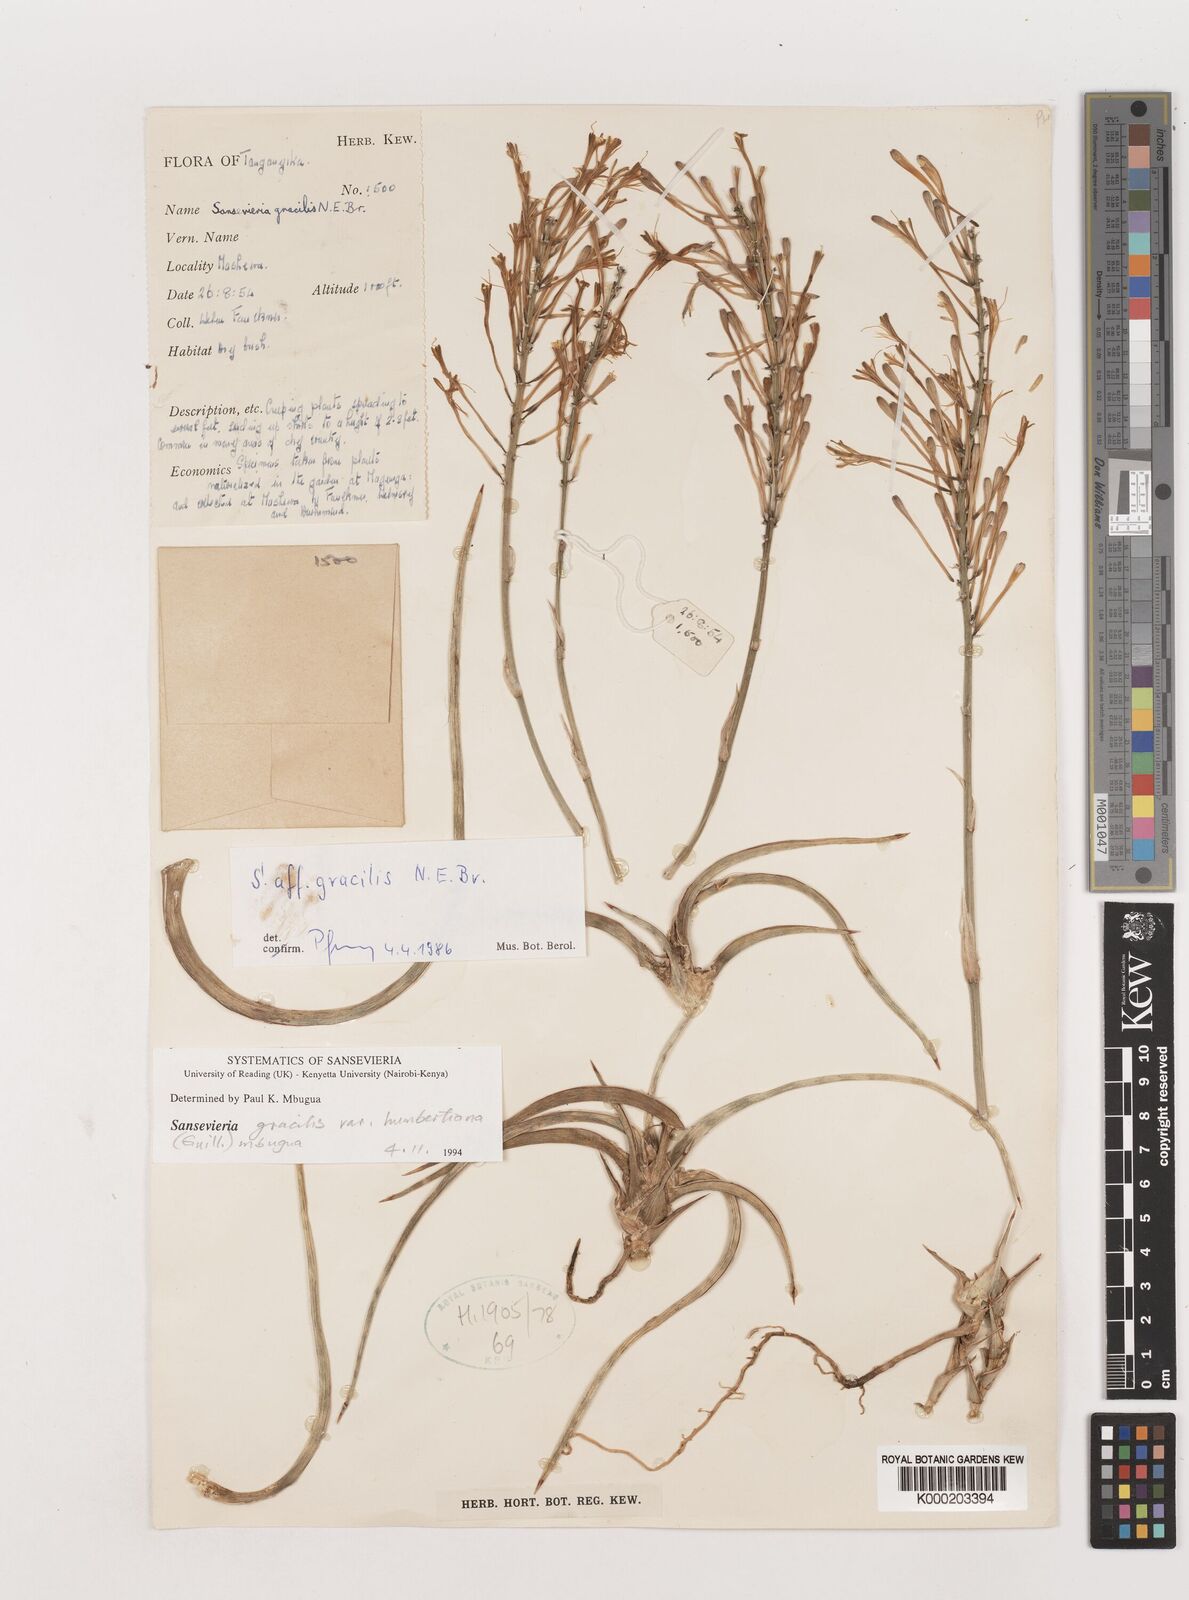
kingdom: Plantae
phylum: Tracheophyta
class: Liliopsida
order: Asparagales
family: Asparagaceae
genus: Dracaena
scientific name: Dracaena serpenta
